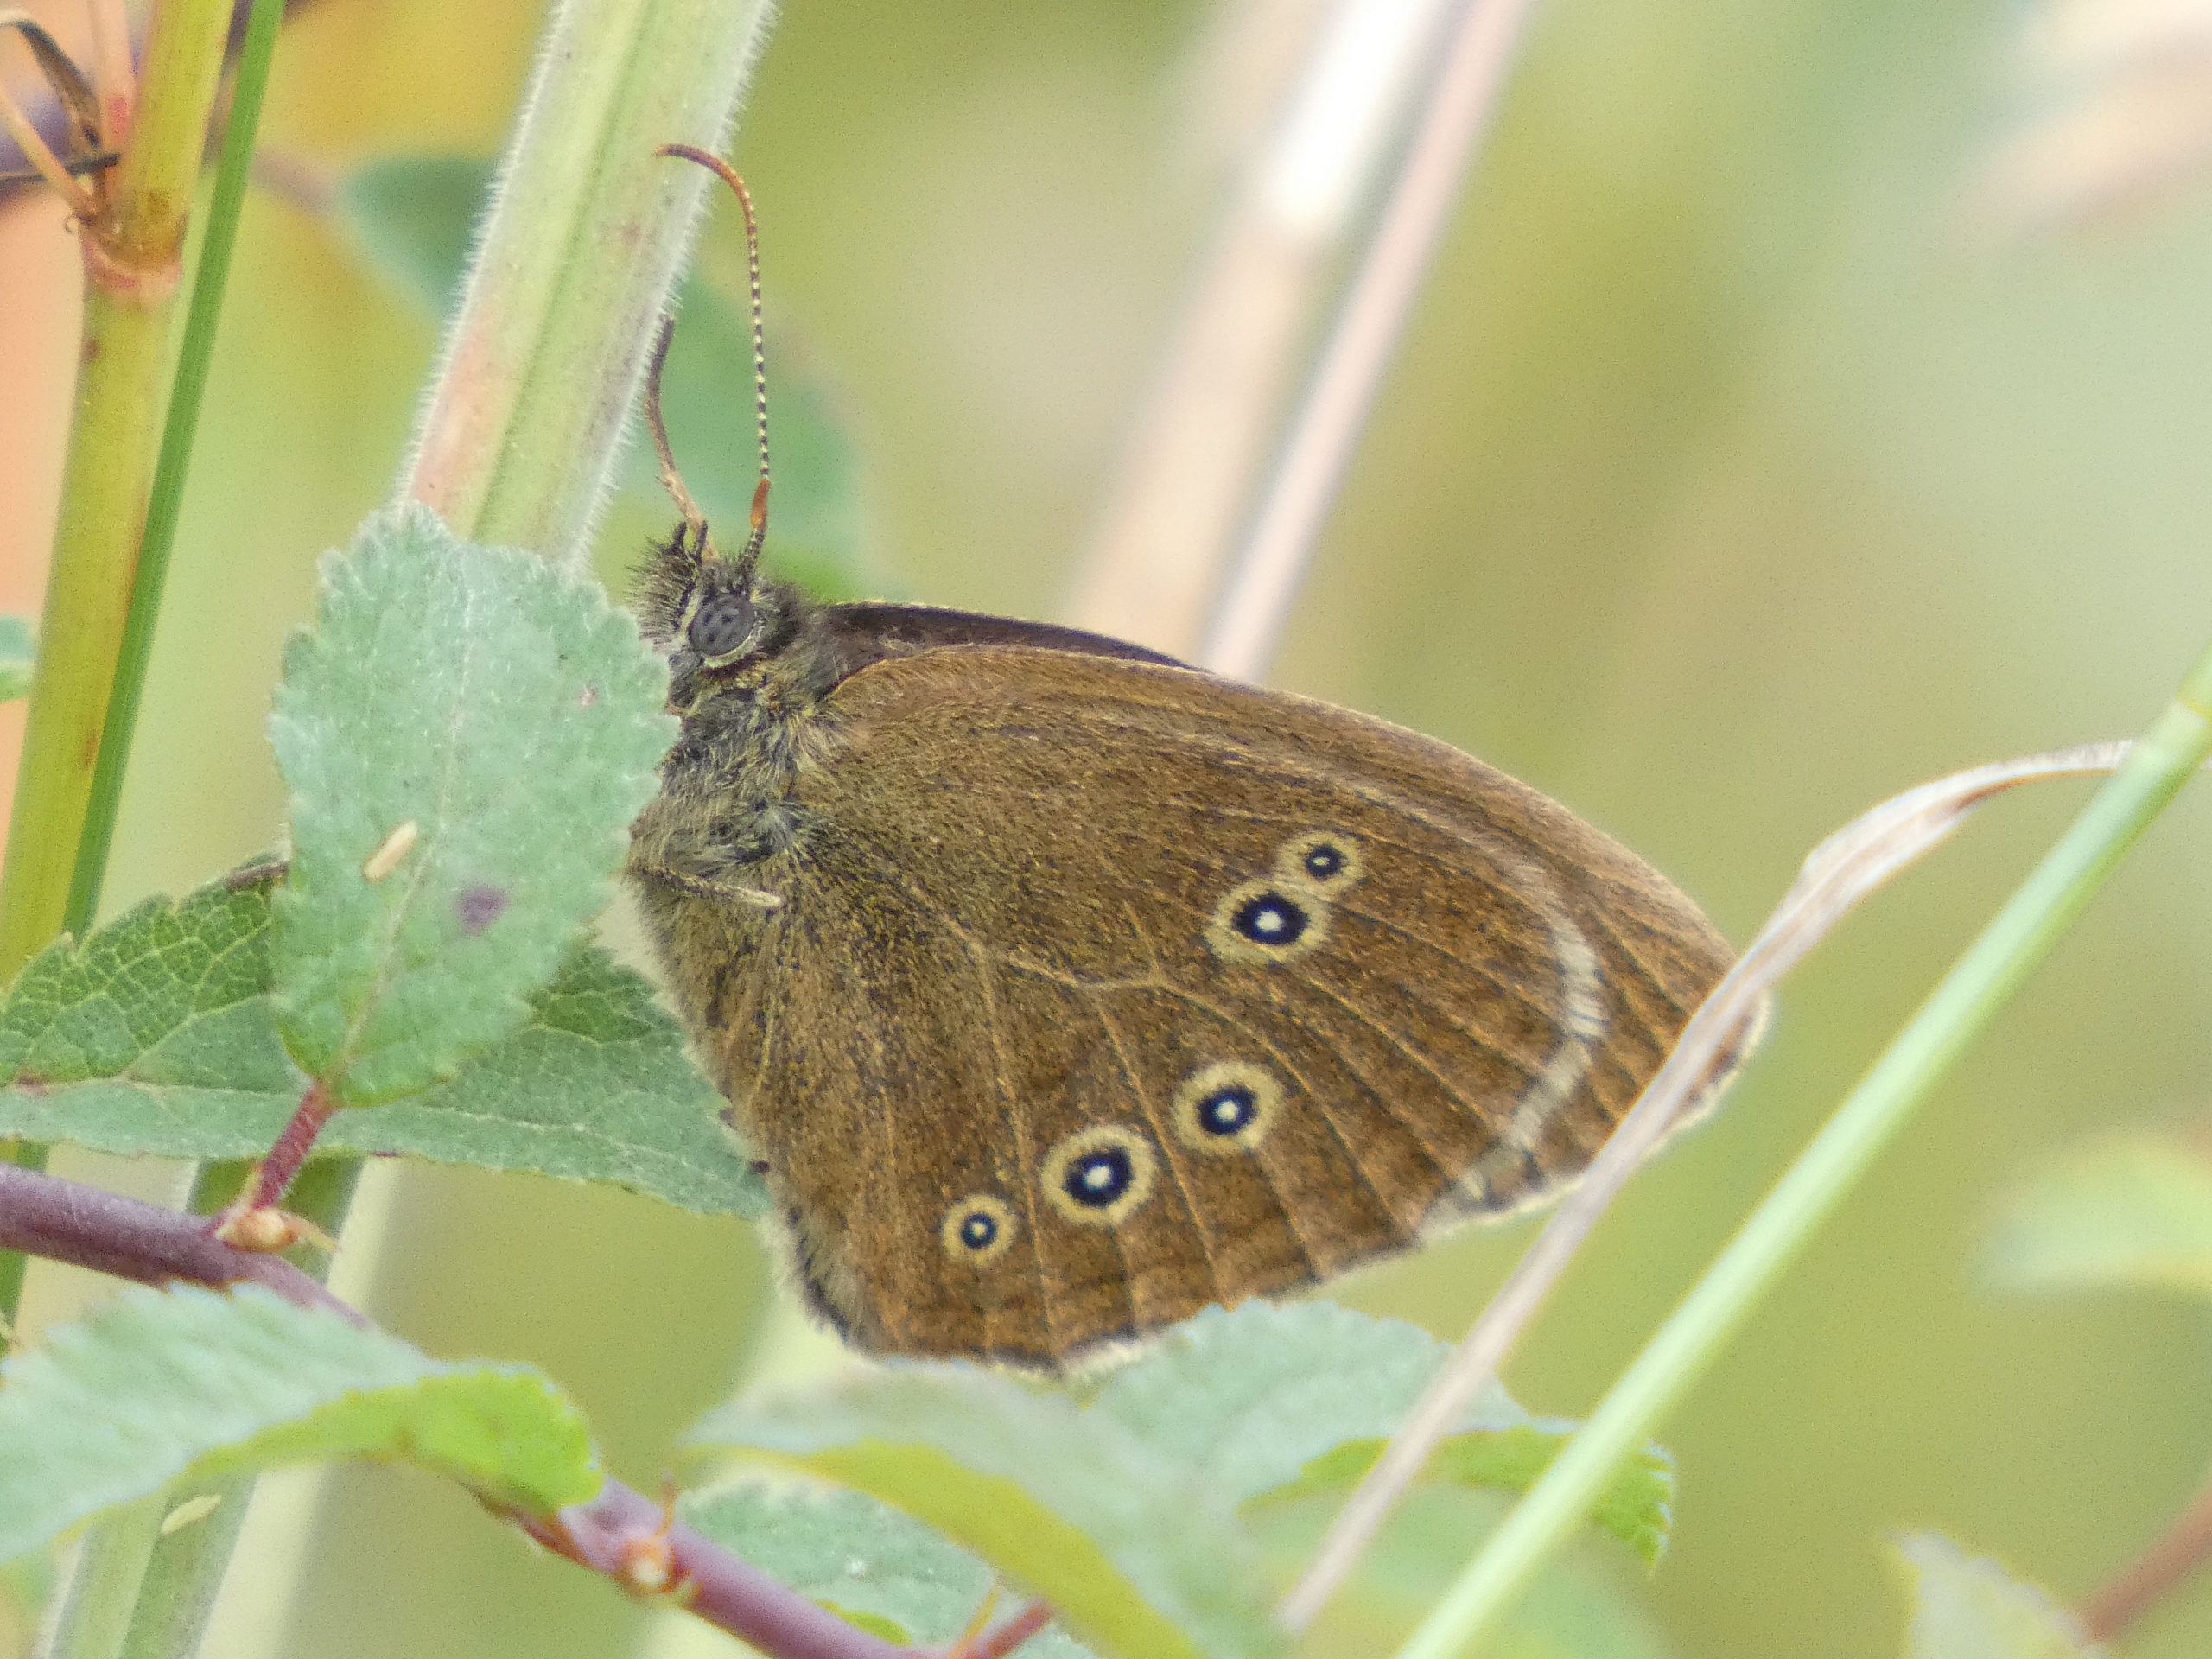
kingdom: Animalia
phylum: Arthropoda
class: Insecta
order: Lepidoptera
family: Nymphalidae
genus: Aphantopus
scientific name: Aphantopus hyperantus
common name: Engrandøje
